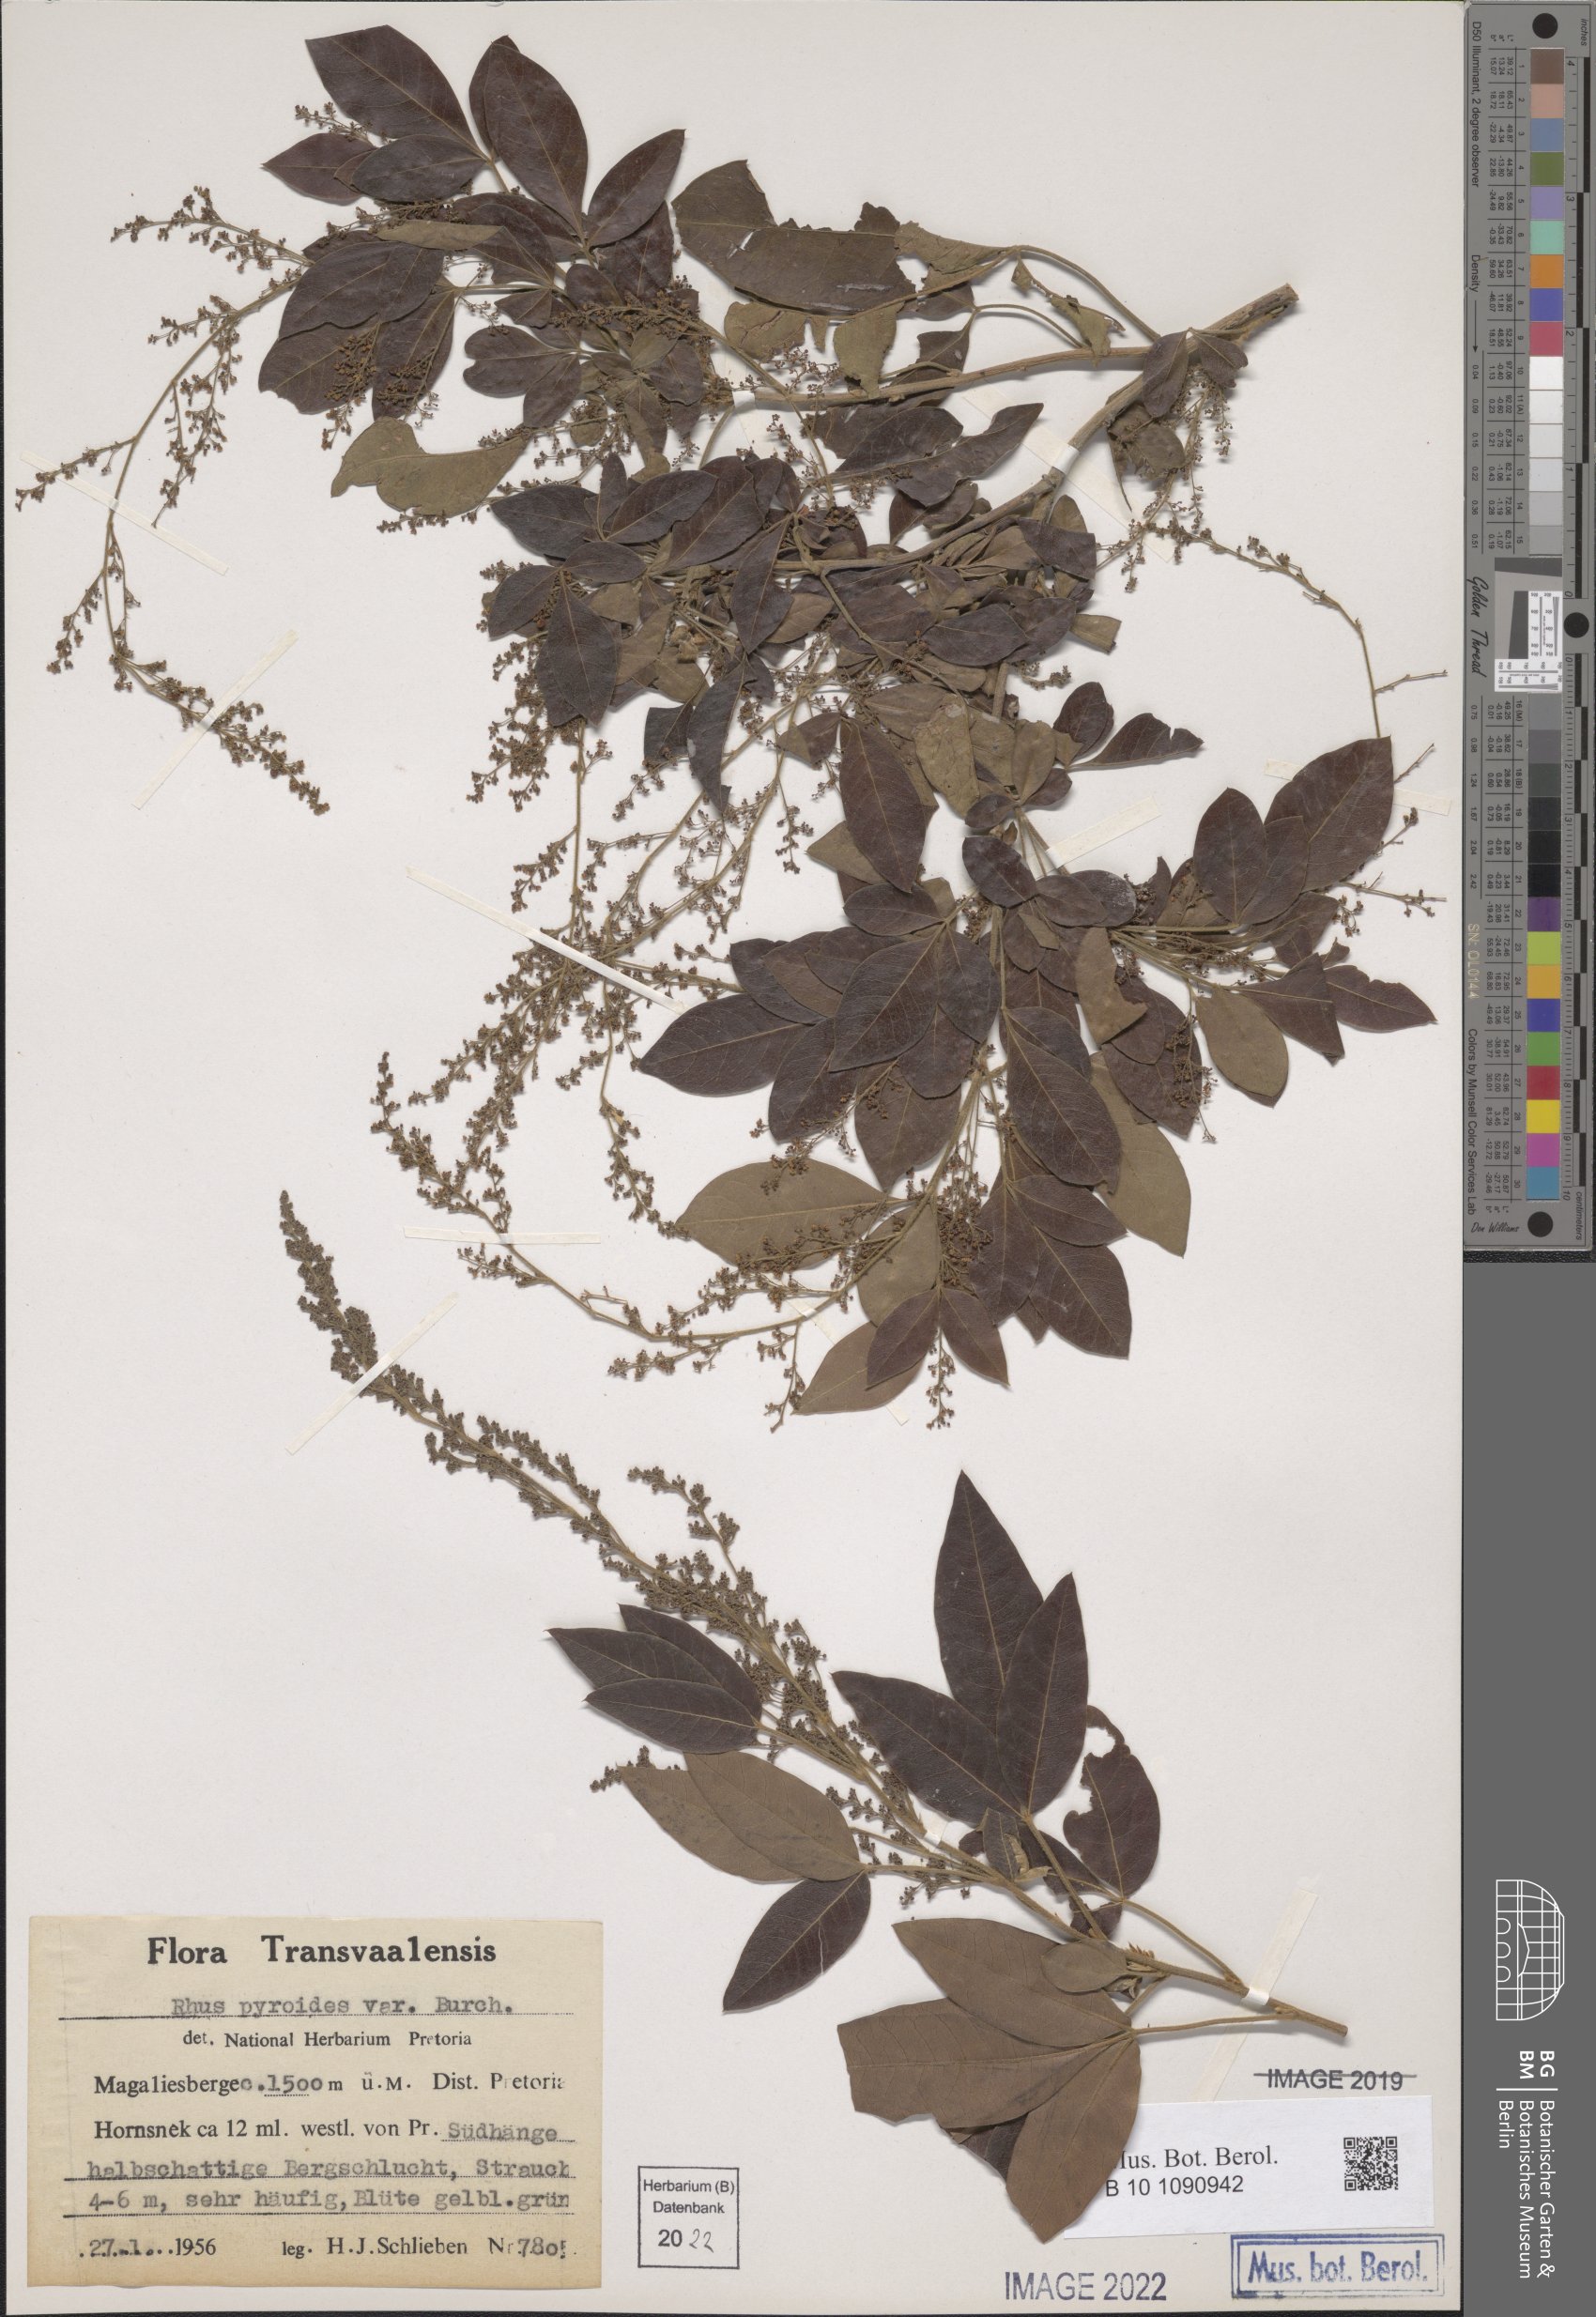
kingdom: Plantae
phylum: Tracheophyta
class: Magnoliopsida
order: Sapindales
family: Anacardiaceae
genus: Searsia
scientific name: Searsia pyroides
